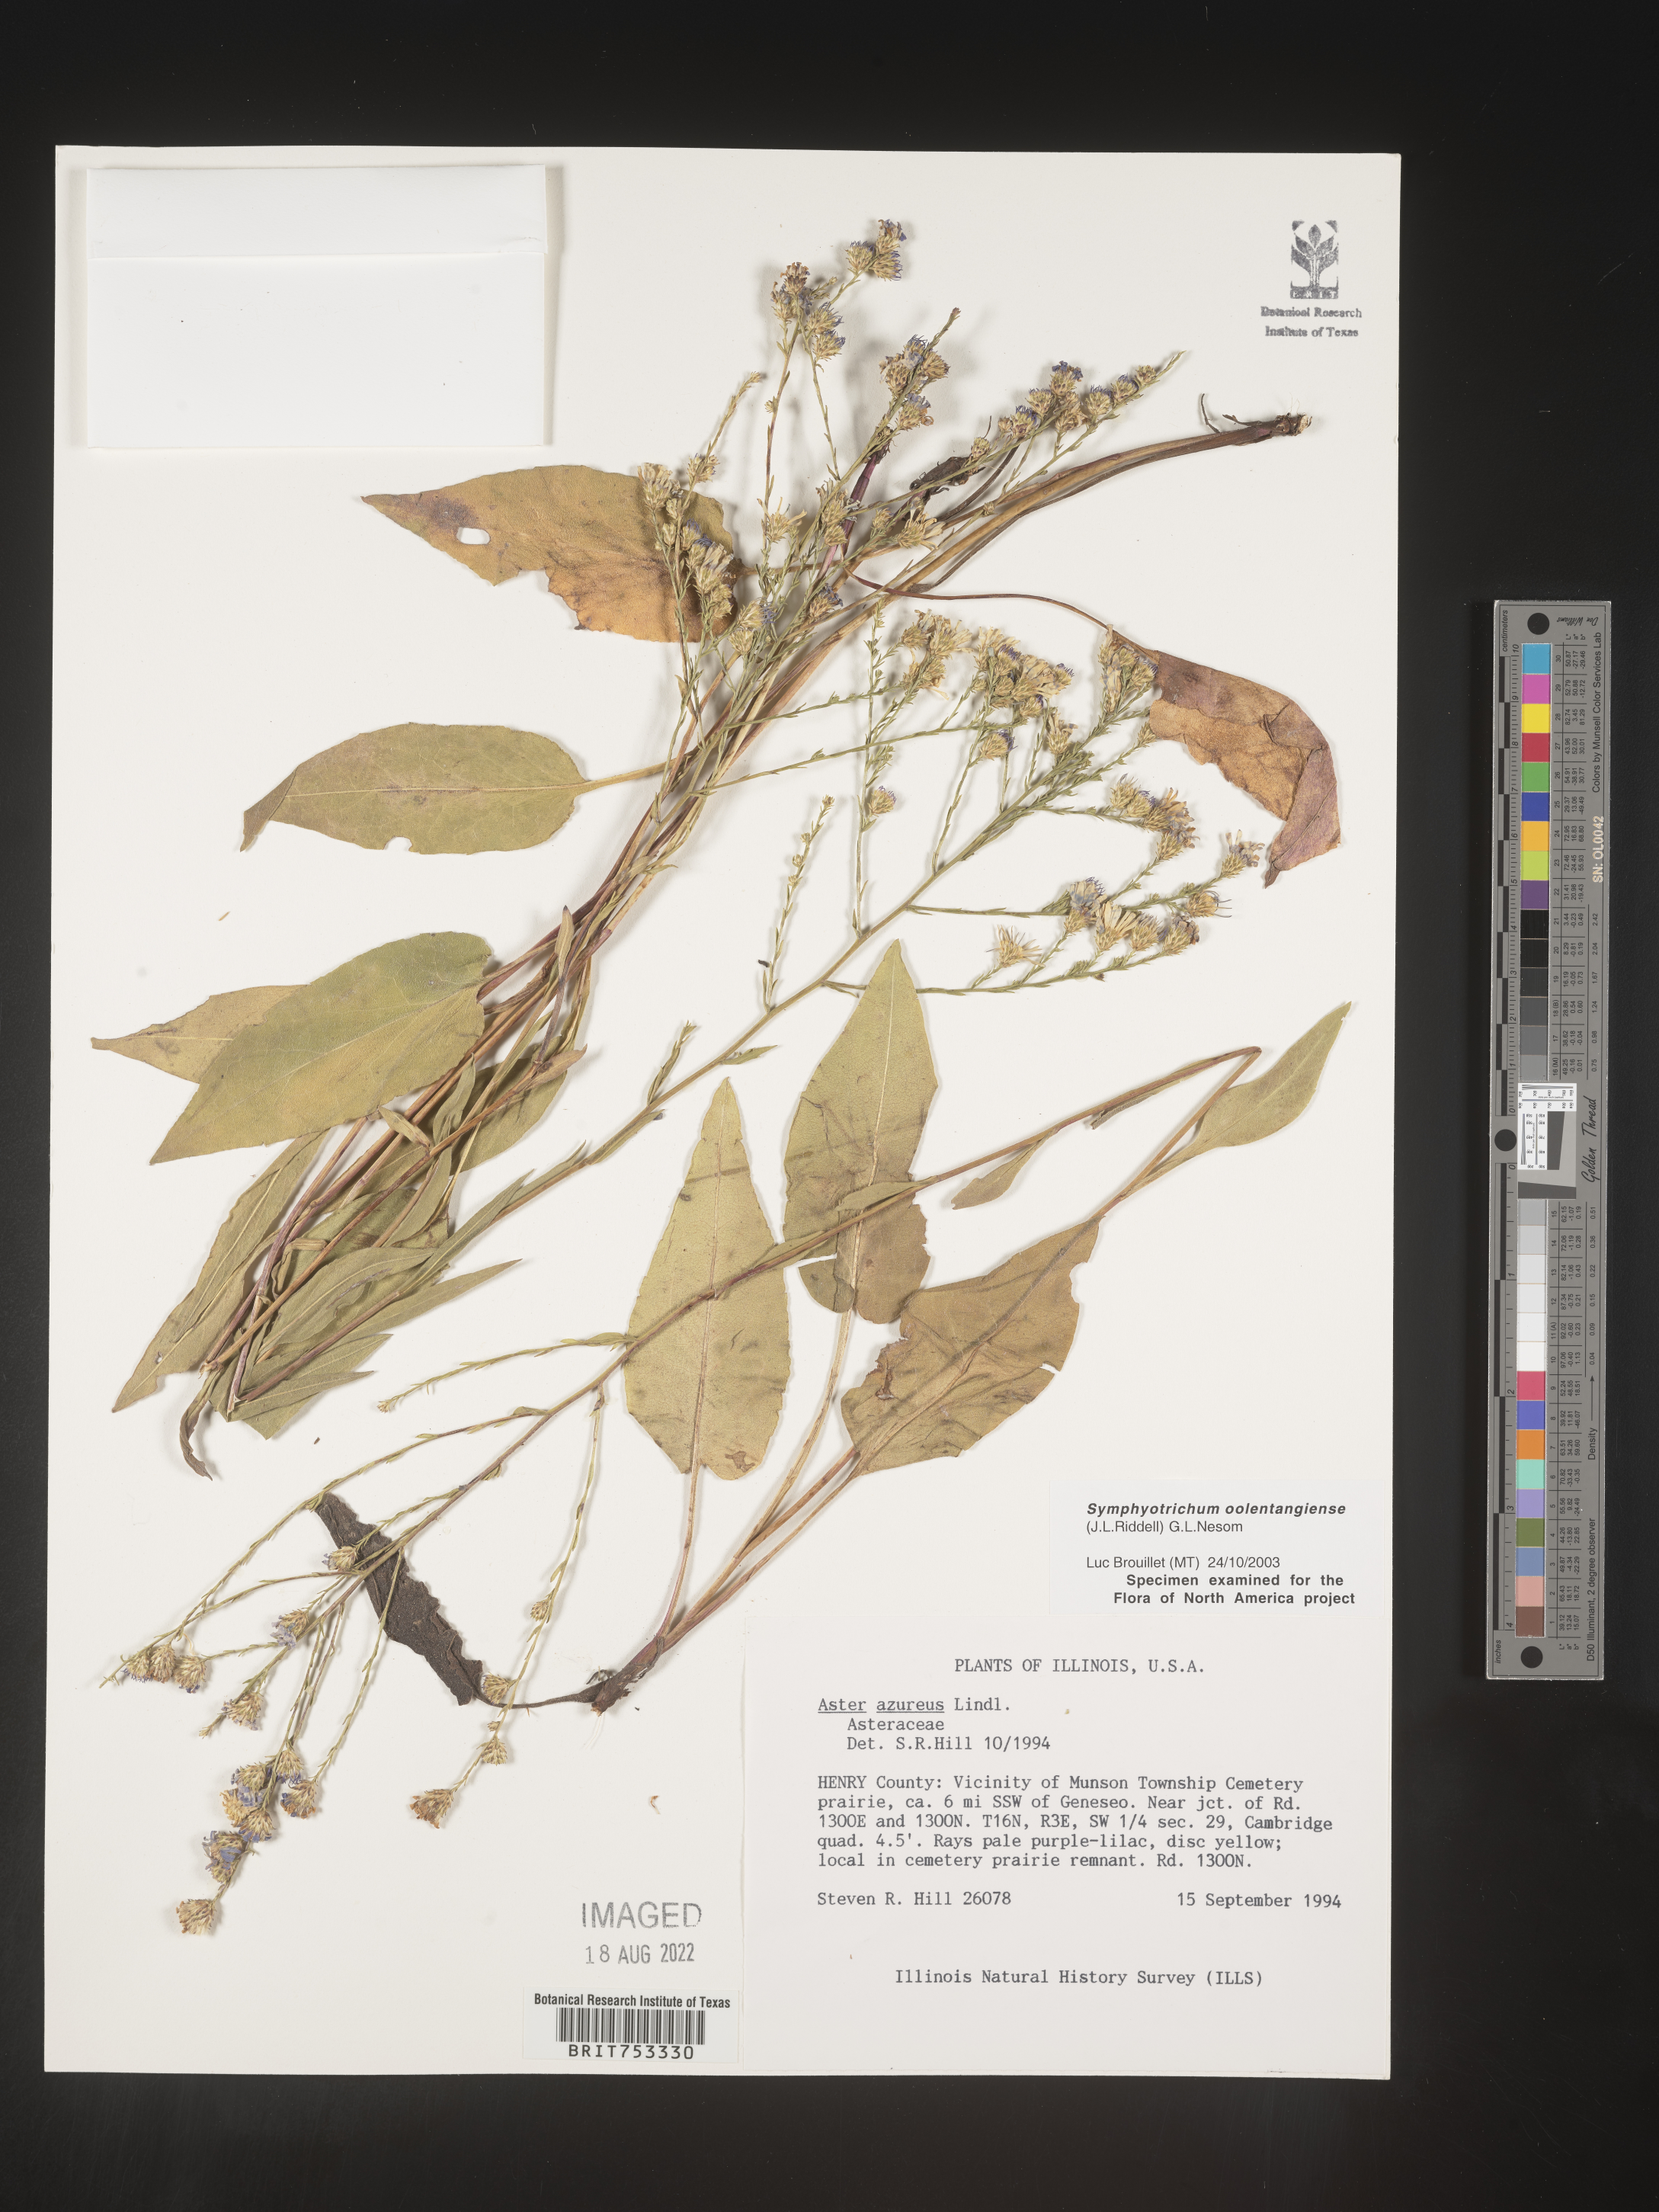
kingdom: Plantae
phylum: Tracheophyta
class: Magnoliopsida
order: Asterales
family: Asteraceae
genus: Symphyotrichum
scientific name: Symphyotrichum oolentangiense
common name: Azure aster
